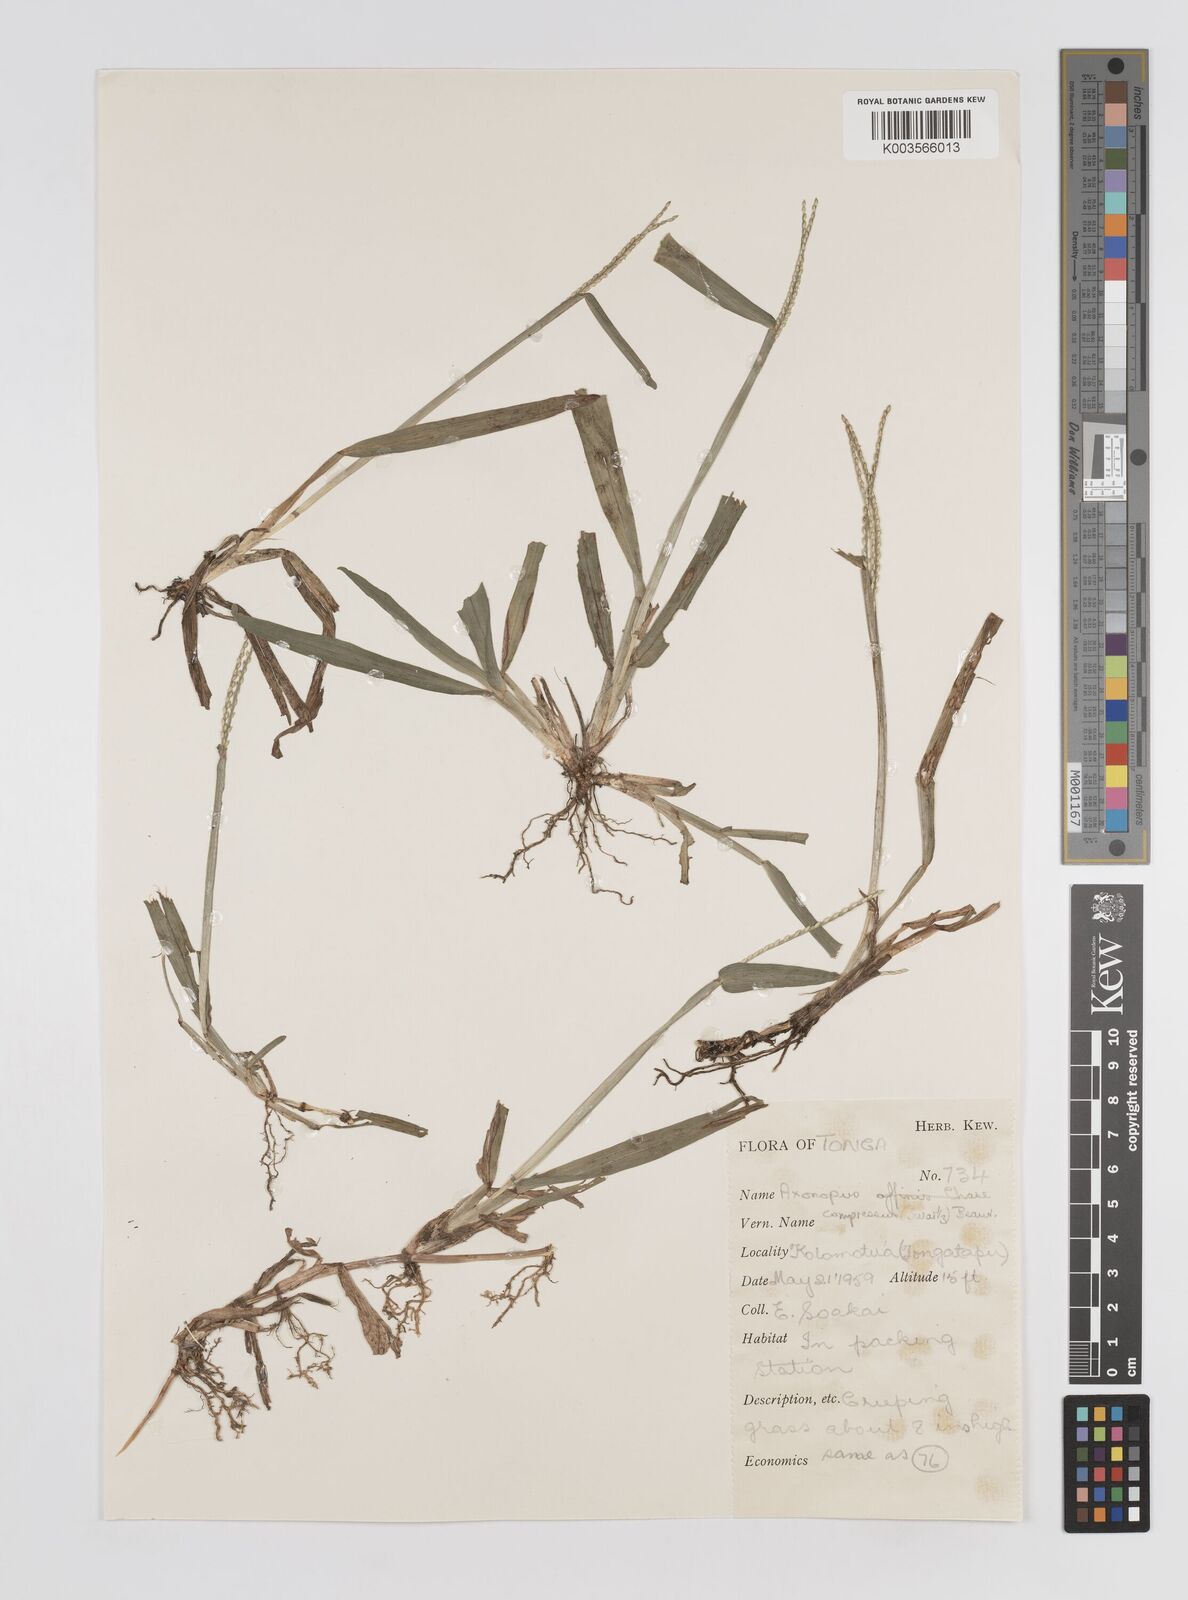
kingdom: Plantae
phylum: Tracheophyta
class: Liliopsida
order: Poales
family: Poaceae
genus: Axonopus
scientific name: Axonopus compressus
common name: American carpet grass
